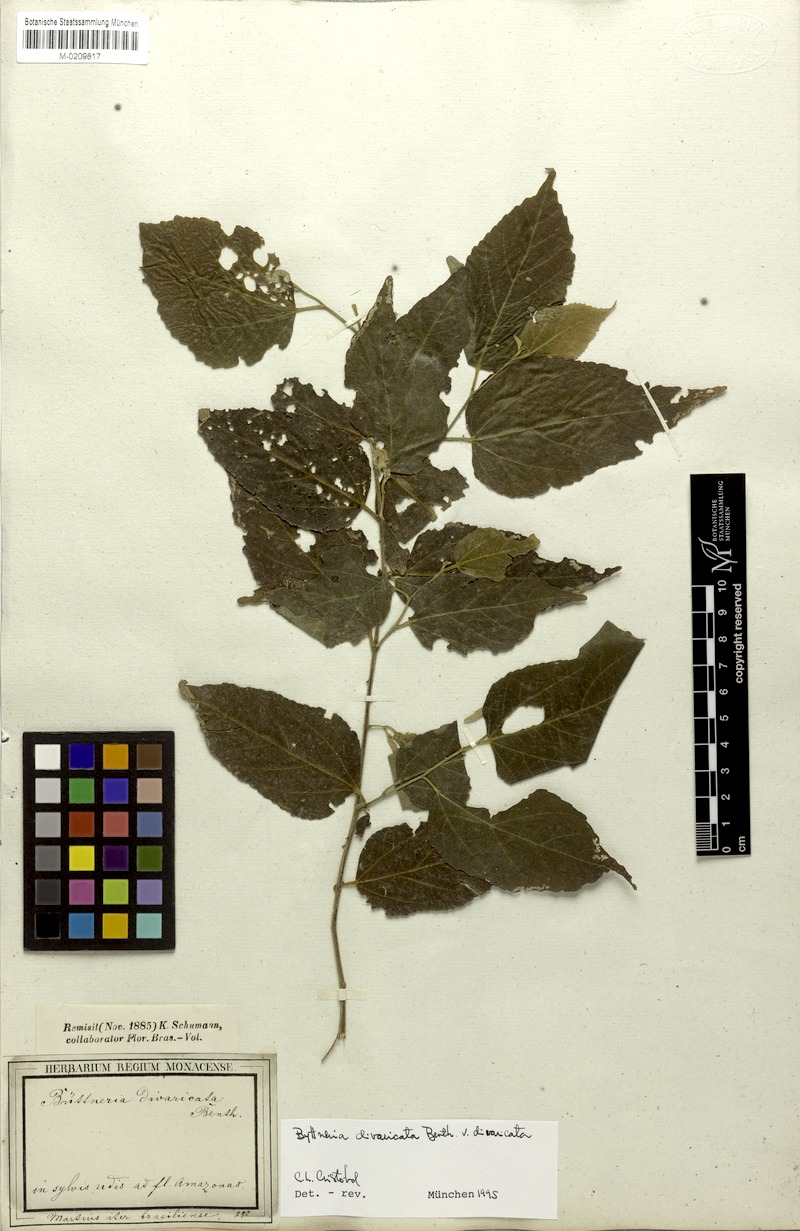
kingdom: Plantae
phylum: Tracheophyta
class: Magnoliopsida
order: Malvales
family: Malvaceae
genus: Byttneria
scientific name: Byttneria divaricata
